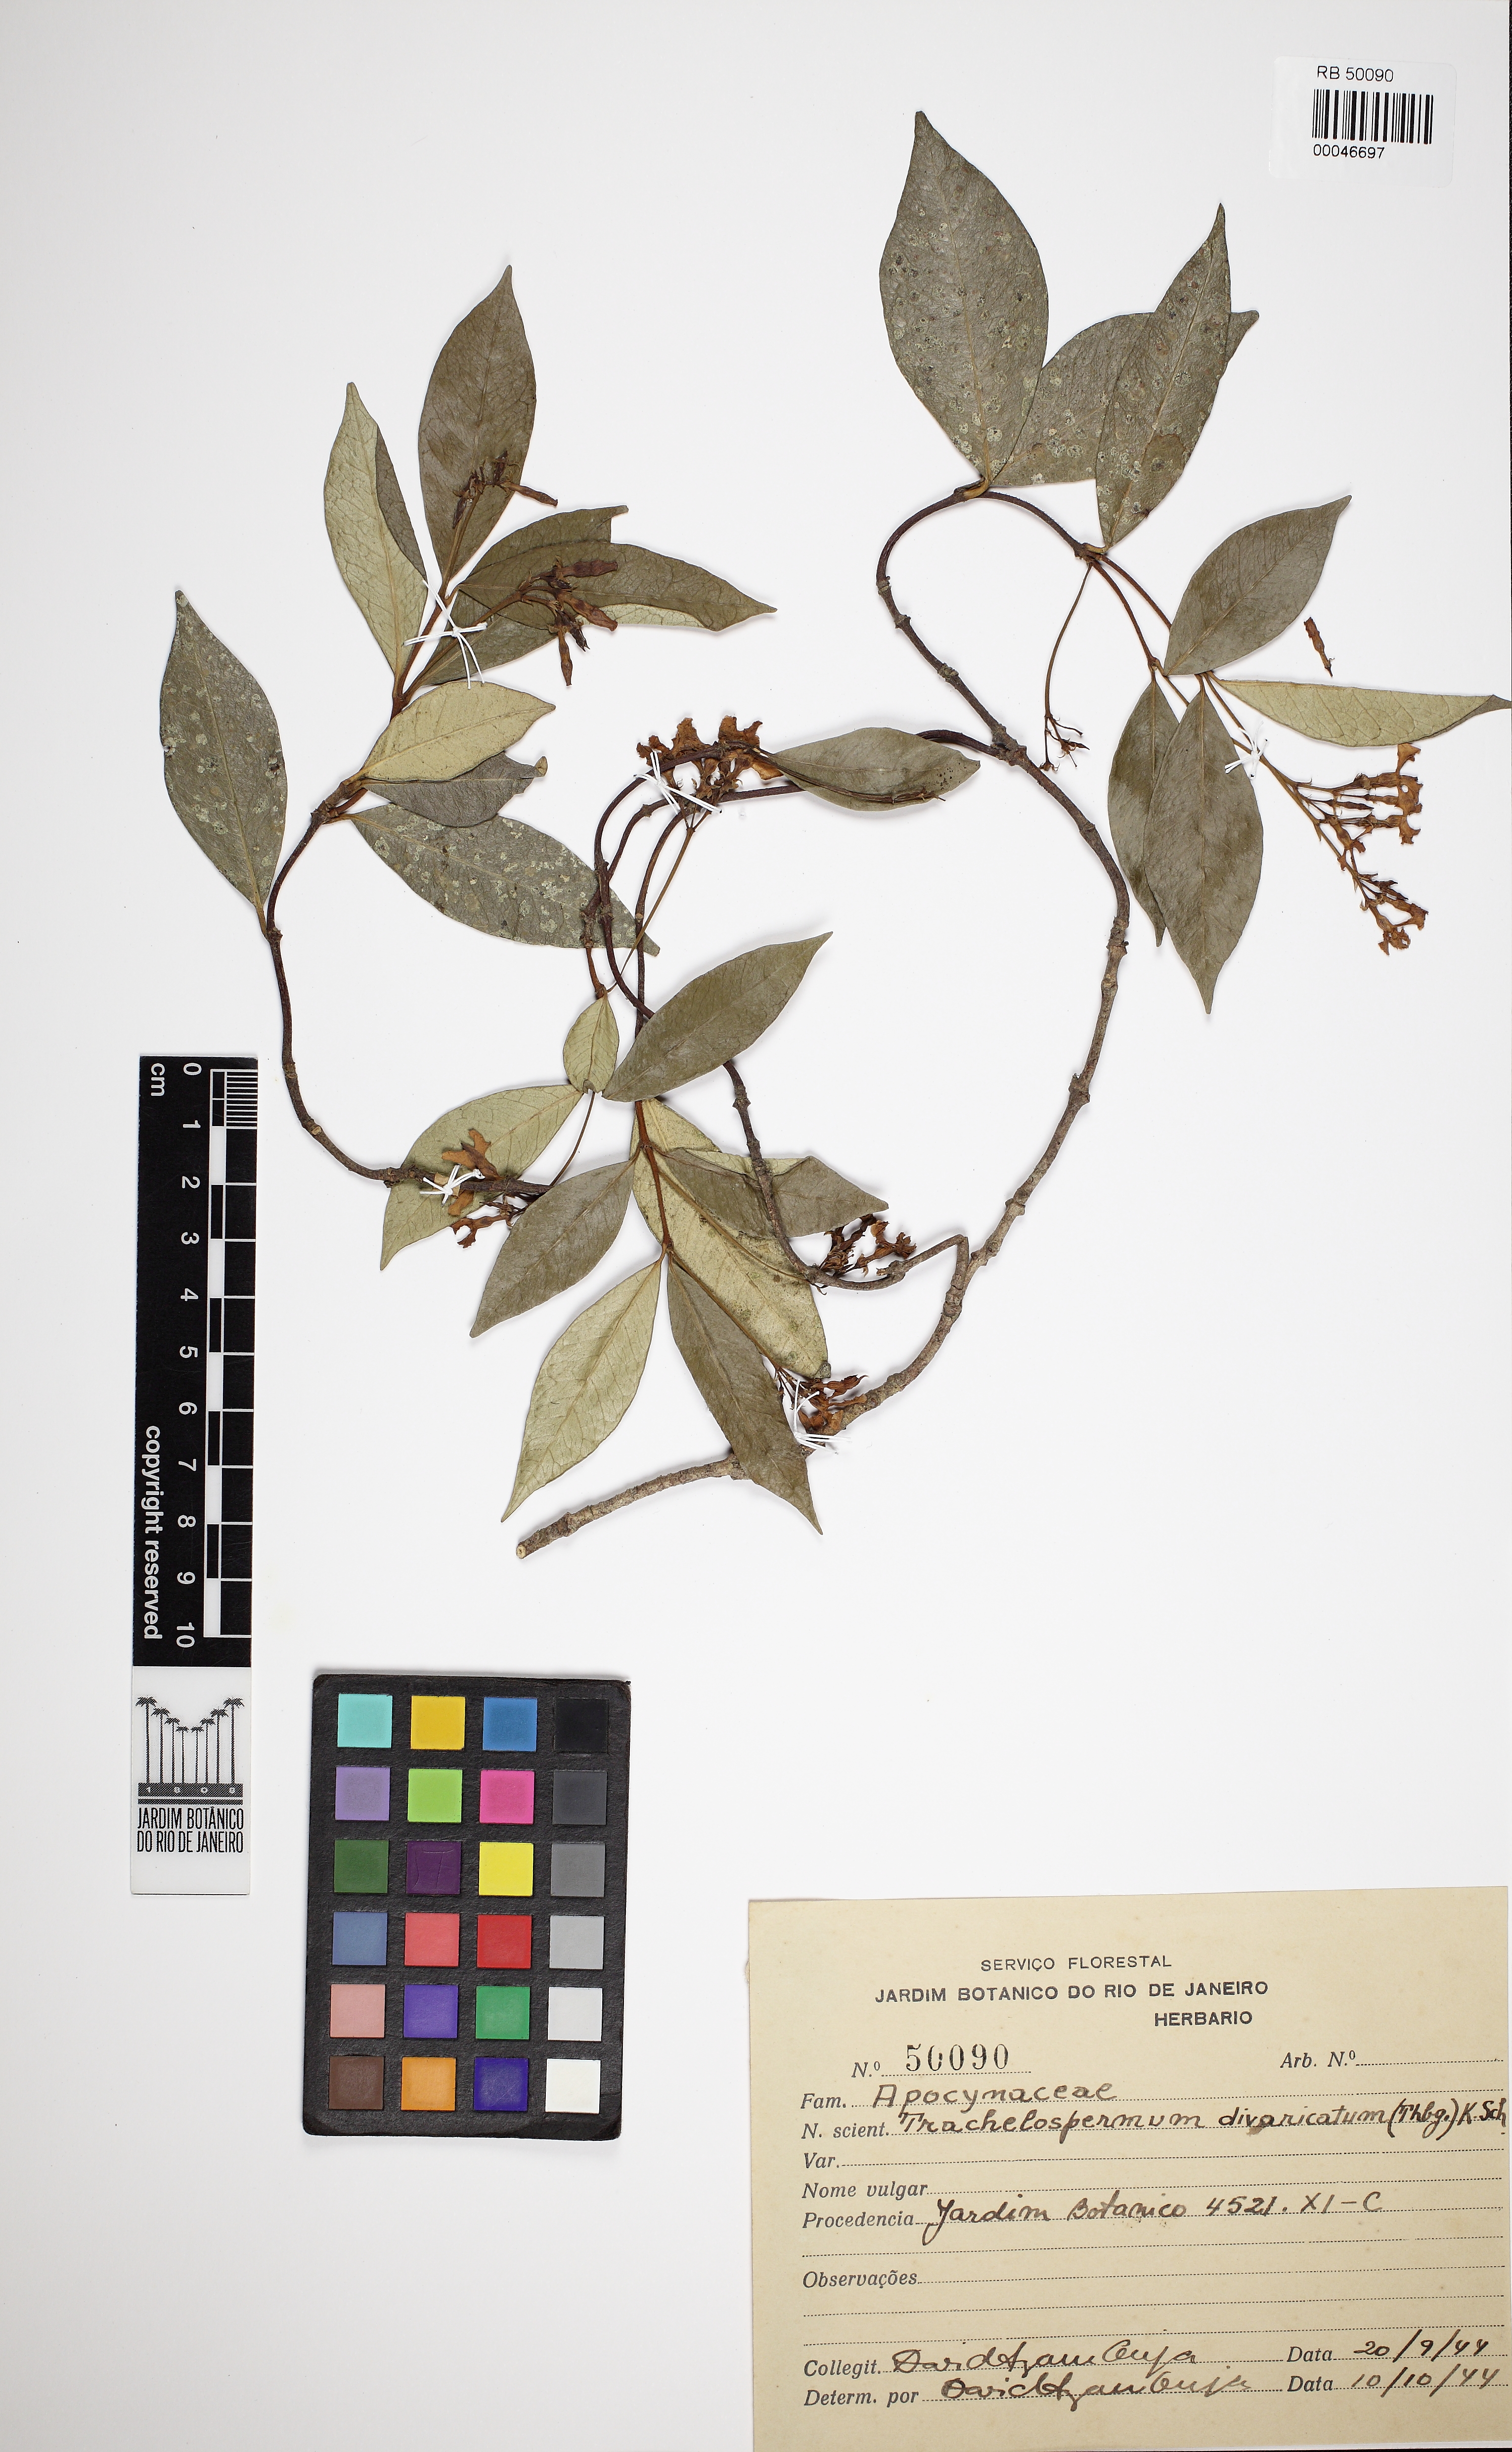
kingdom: Plantae
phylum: Tracheophyta
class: Magnoliopsida
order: Gentianales
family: Apocynaceae
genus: Trachelospermum
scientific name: Trachelospermum jasminoides
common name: Confederate jasmine
